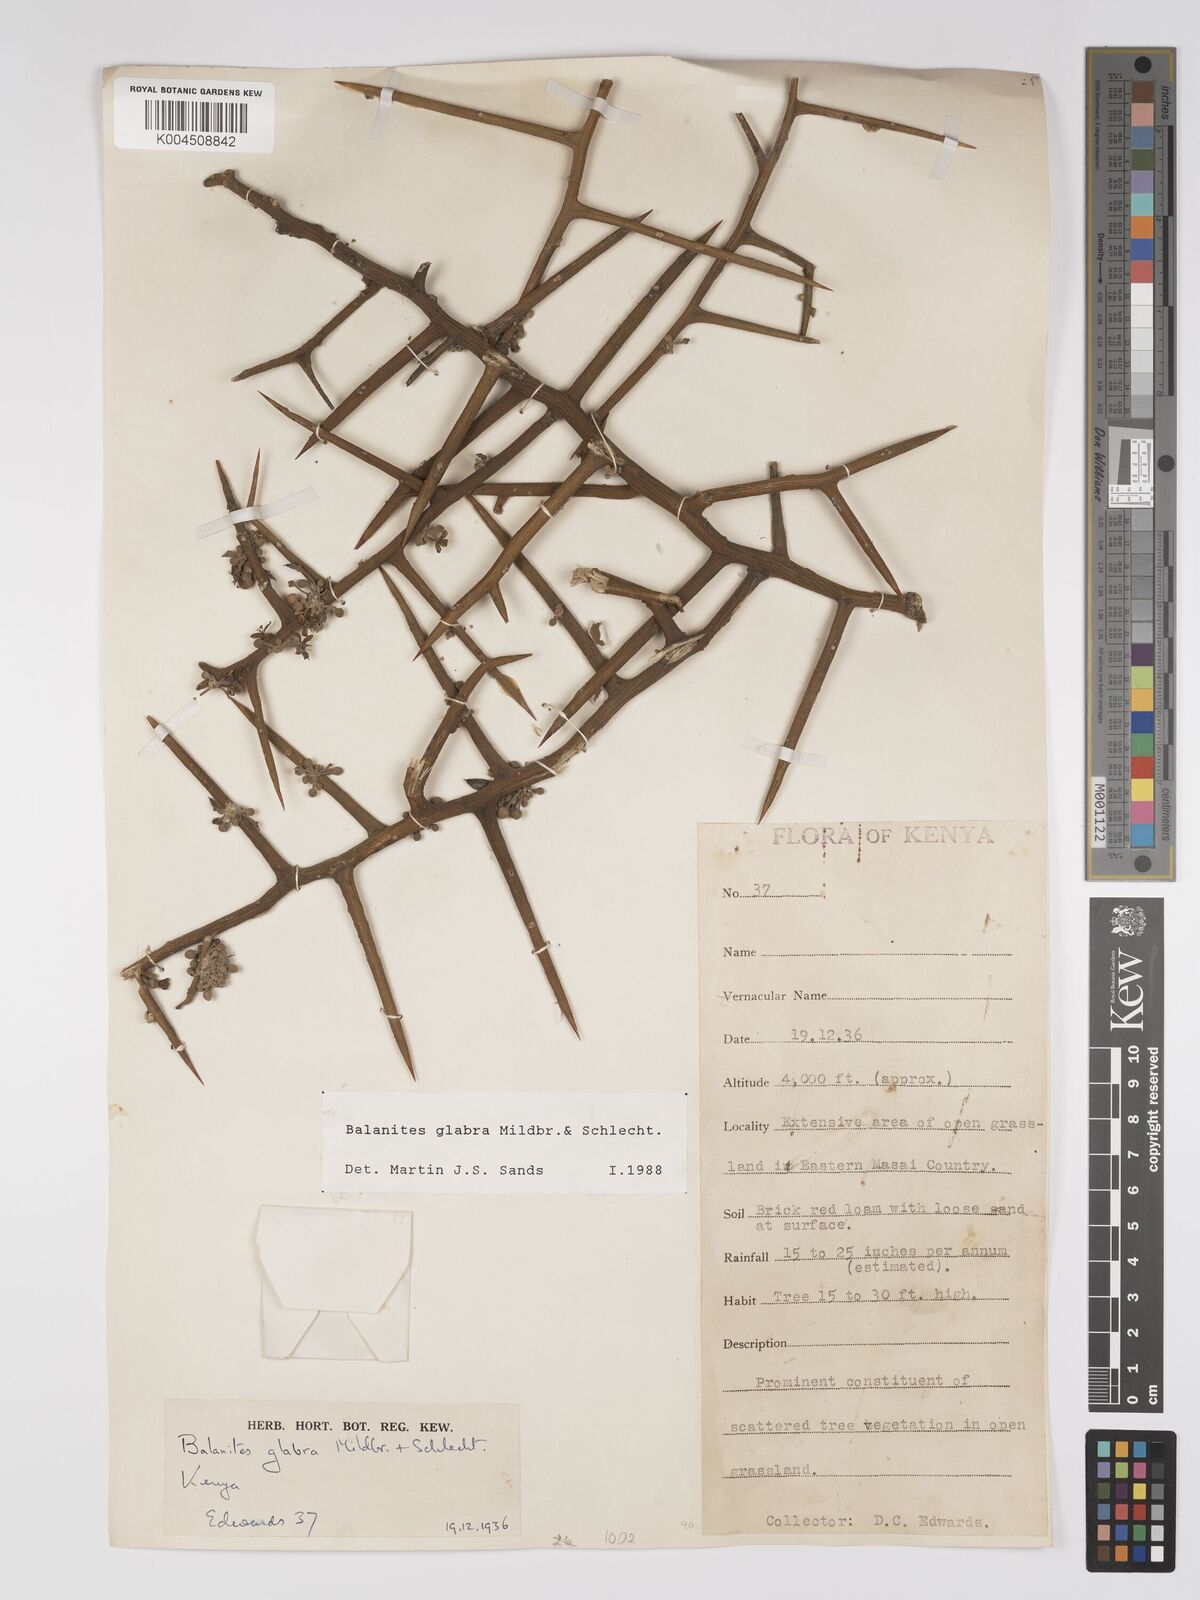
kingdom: Plantae
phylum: Tracheophyta
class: Magnoliopsida
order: Zygophyllales
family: Zygophyllaceae
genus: Balanites
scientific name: Balanites glabra
